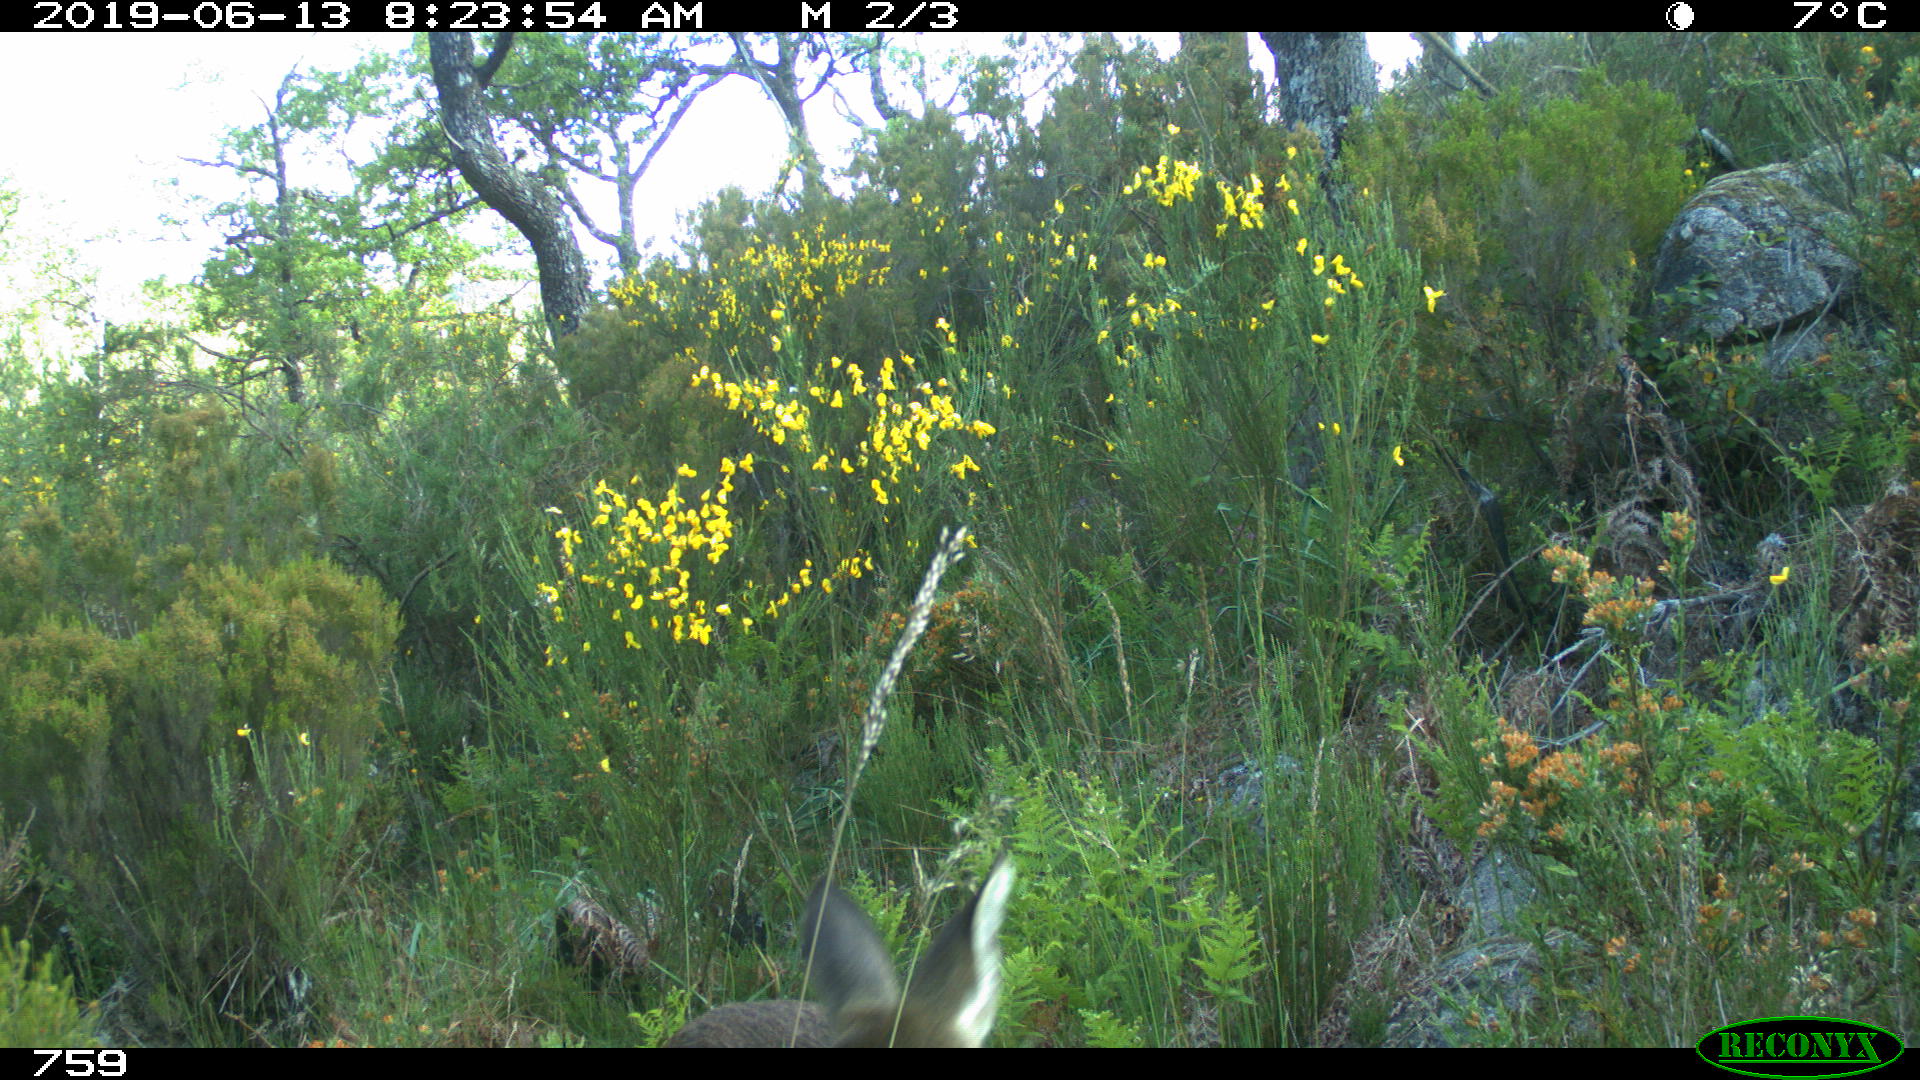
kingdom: Animalia
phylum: Chordata
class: Mammalia
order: Artiodactyla
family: Cervidae
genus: Capreolus
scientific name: Capreolus capreolus
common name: Western roe deer
